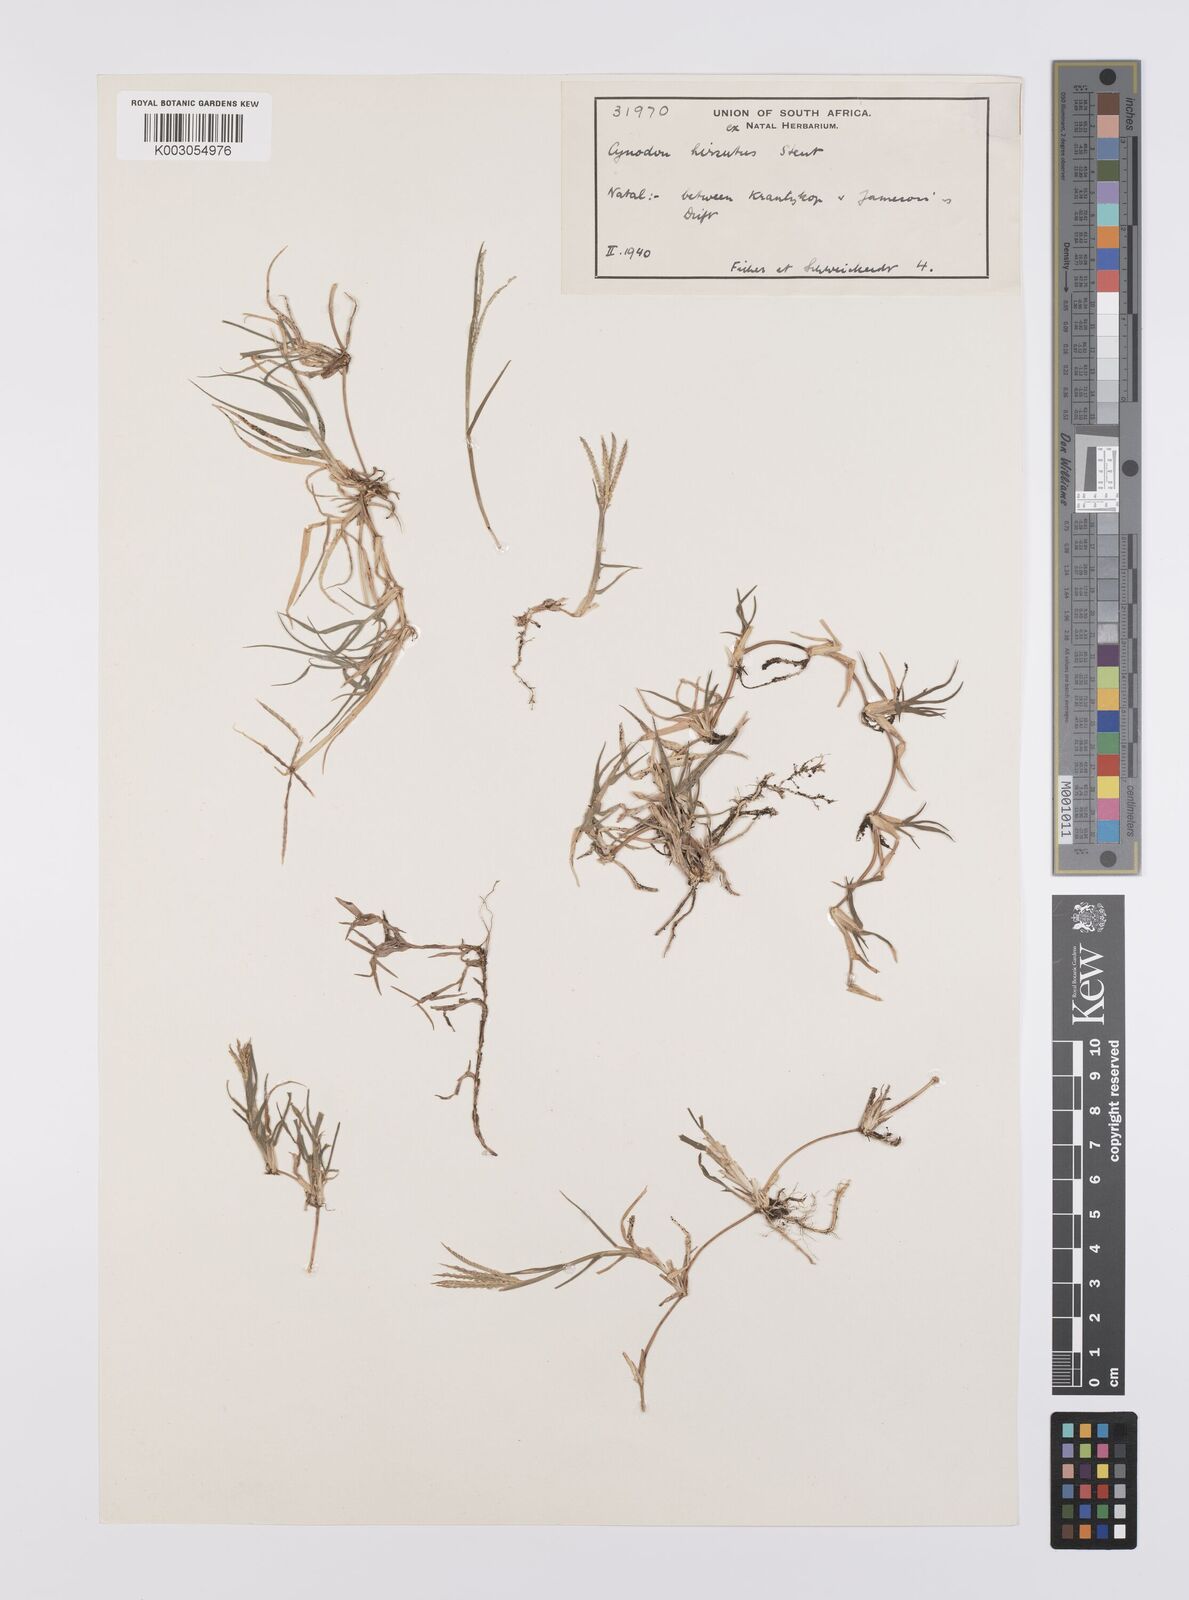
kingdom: Plantae
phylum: Tracheophyta
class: Liliopsida
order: Poales
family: Poaceae
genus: Cynodon
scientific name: Cynodon incompletus
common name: African bermuda-grass
